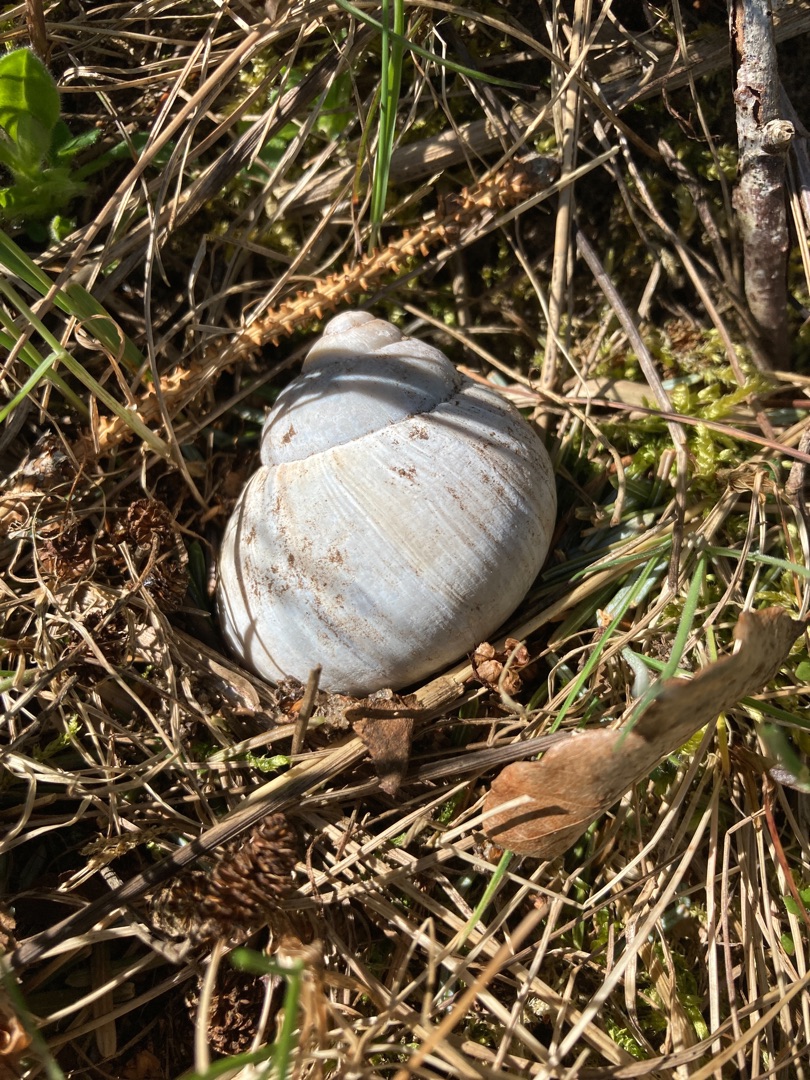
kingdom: Animalia
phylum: Mollusca
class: Gastropoda
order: Stylommatophora
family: Helicidae
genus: Helix
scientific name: Helix pomatia
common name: Vinbjergsnegl
